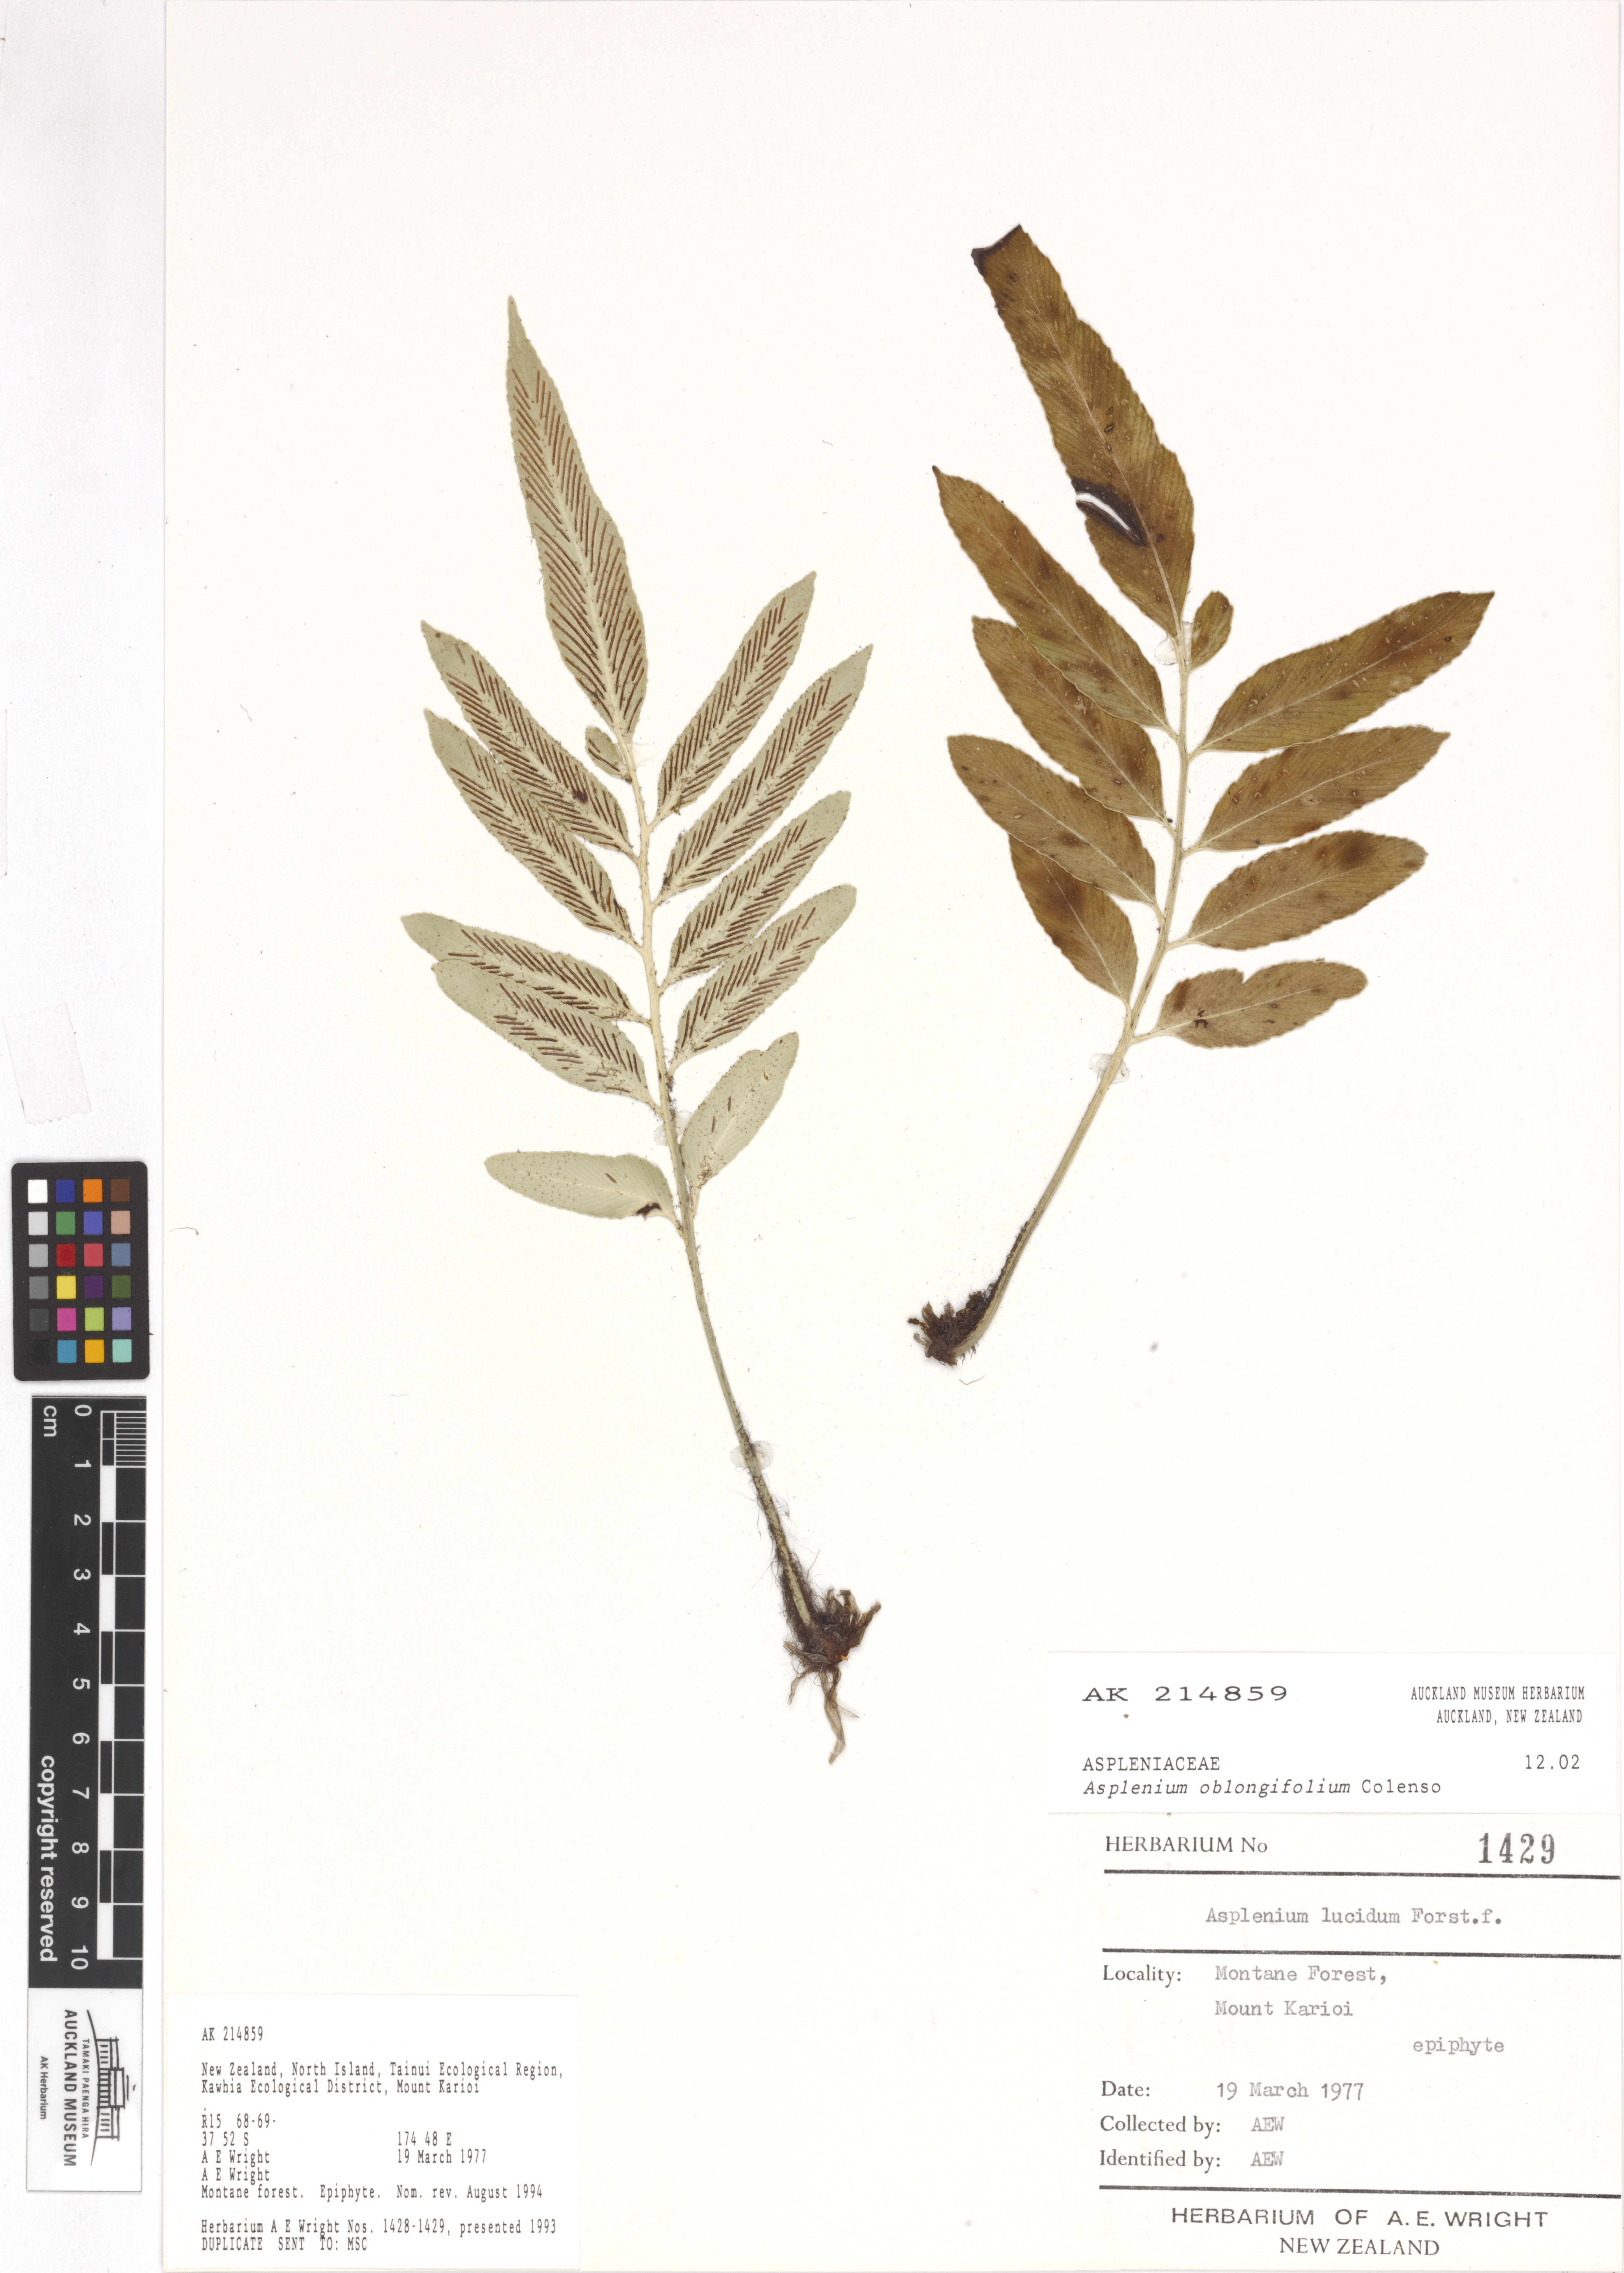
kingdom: Plantae
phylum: Tracheophyta
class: Polypodiopsida
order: Polypodiales
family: Aspleniaceae
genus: Asplenium
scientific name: Asplenium oblongifolium
